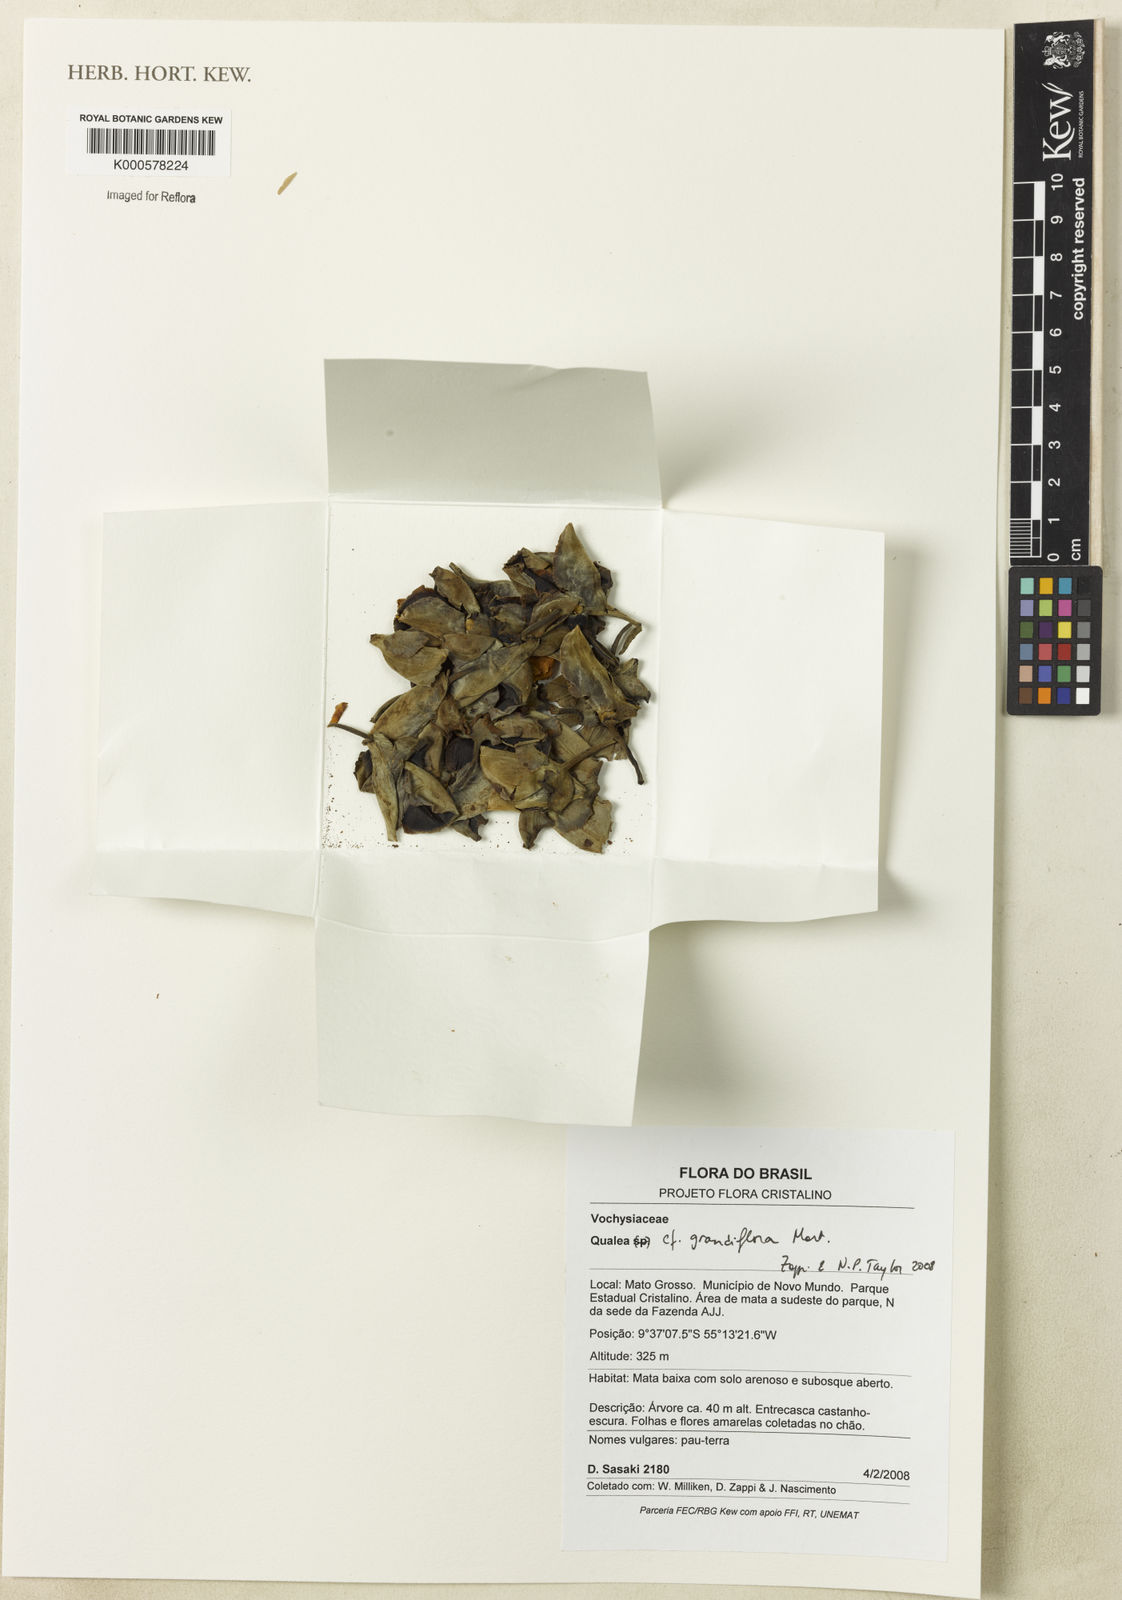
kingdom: Plantae
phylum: Tracheophyta
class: Magnoliopsida
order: Myrtales
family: Vochysiaceae
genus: Qualea
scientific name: Qualea grandiflora
